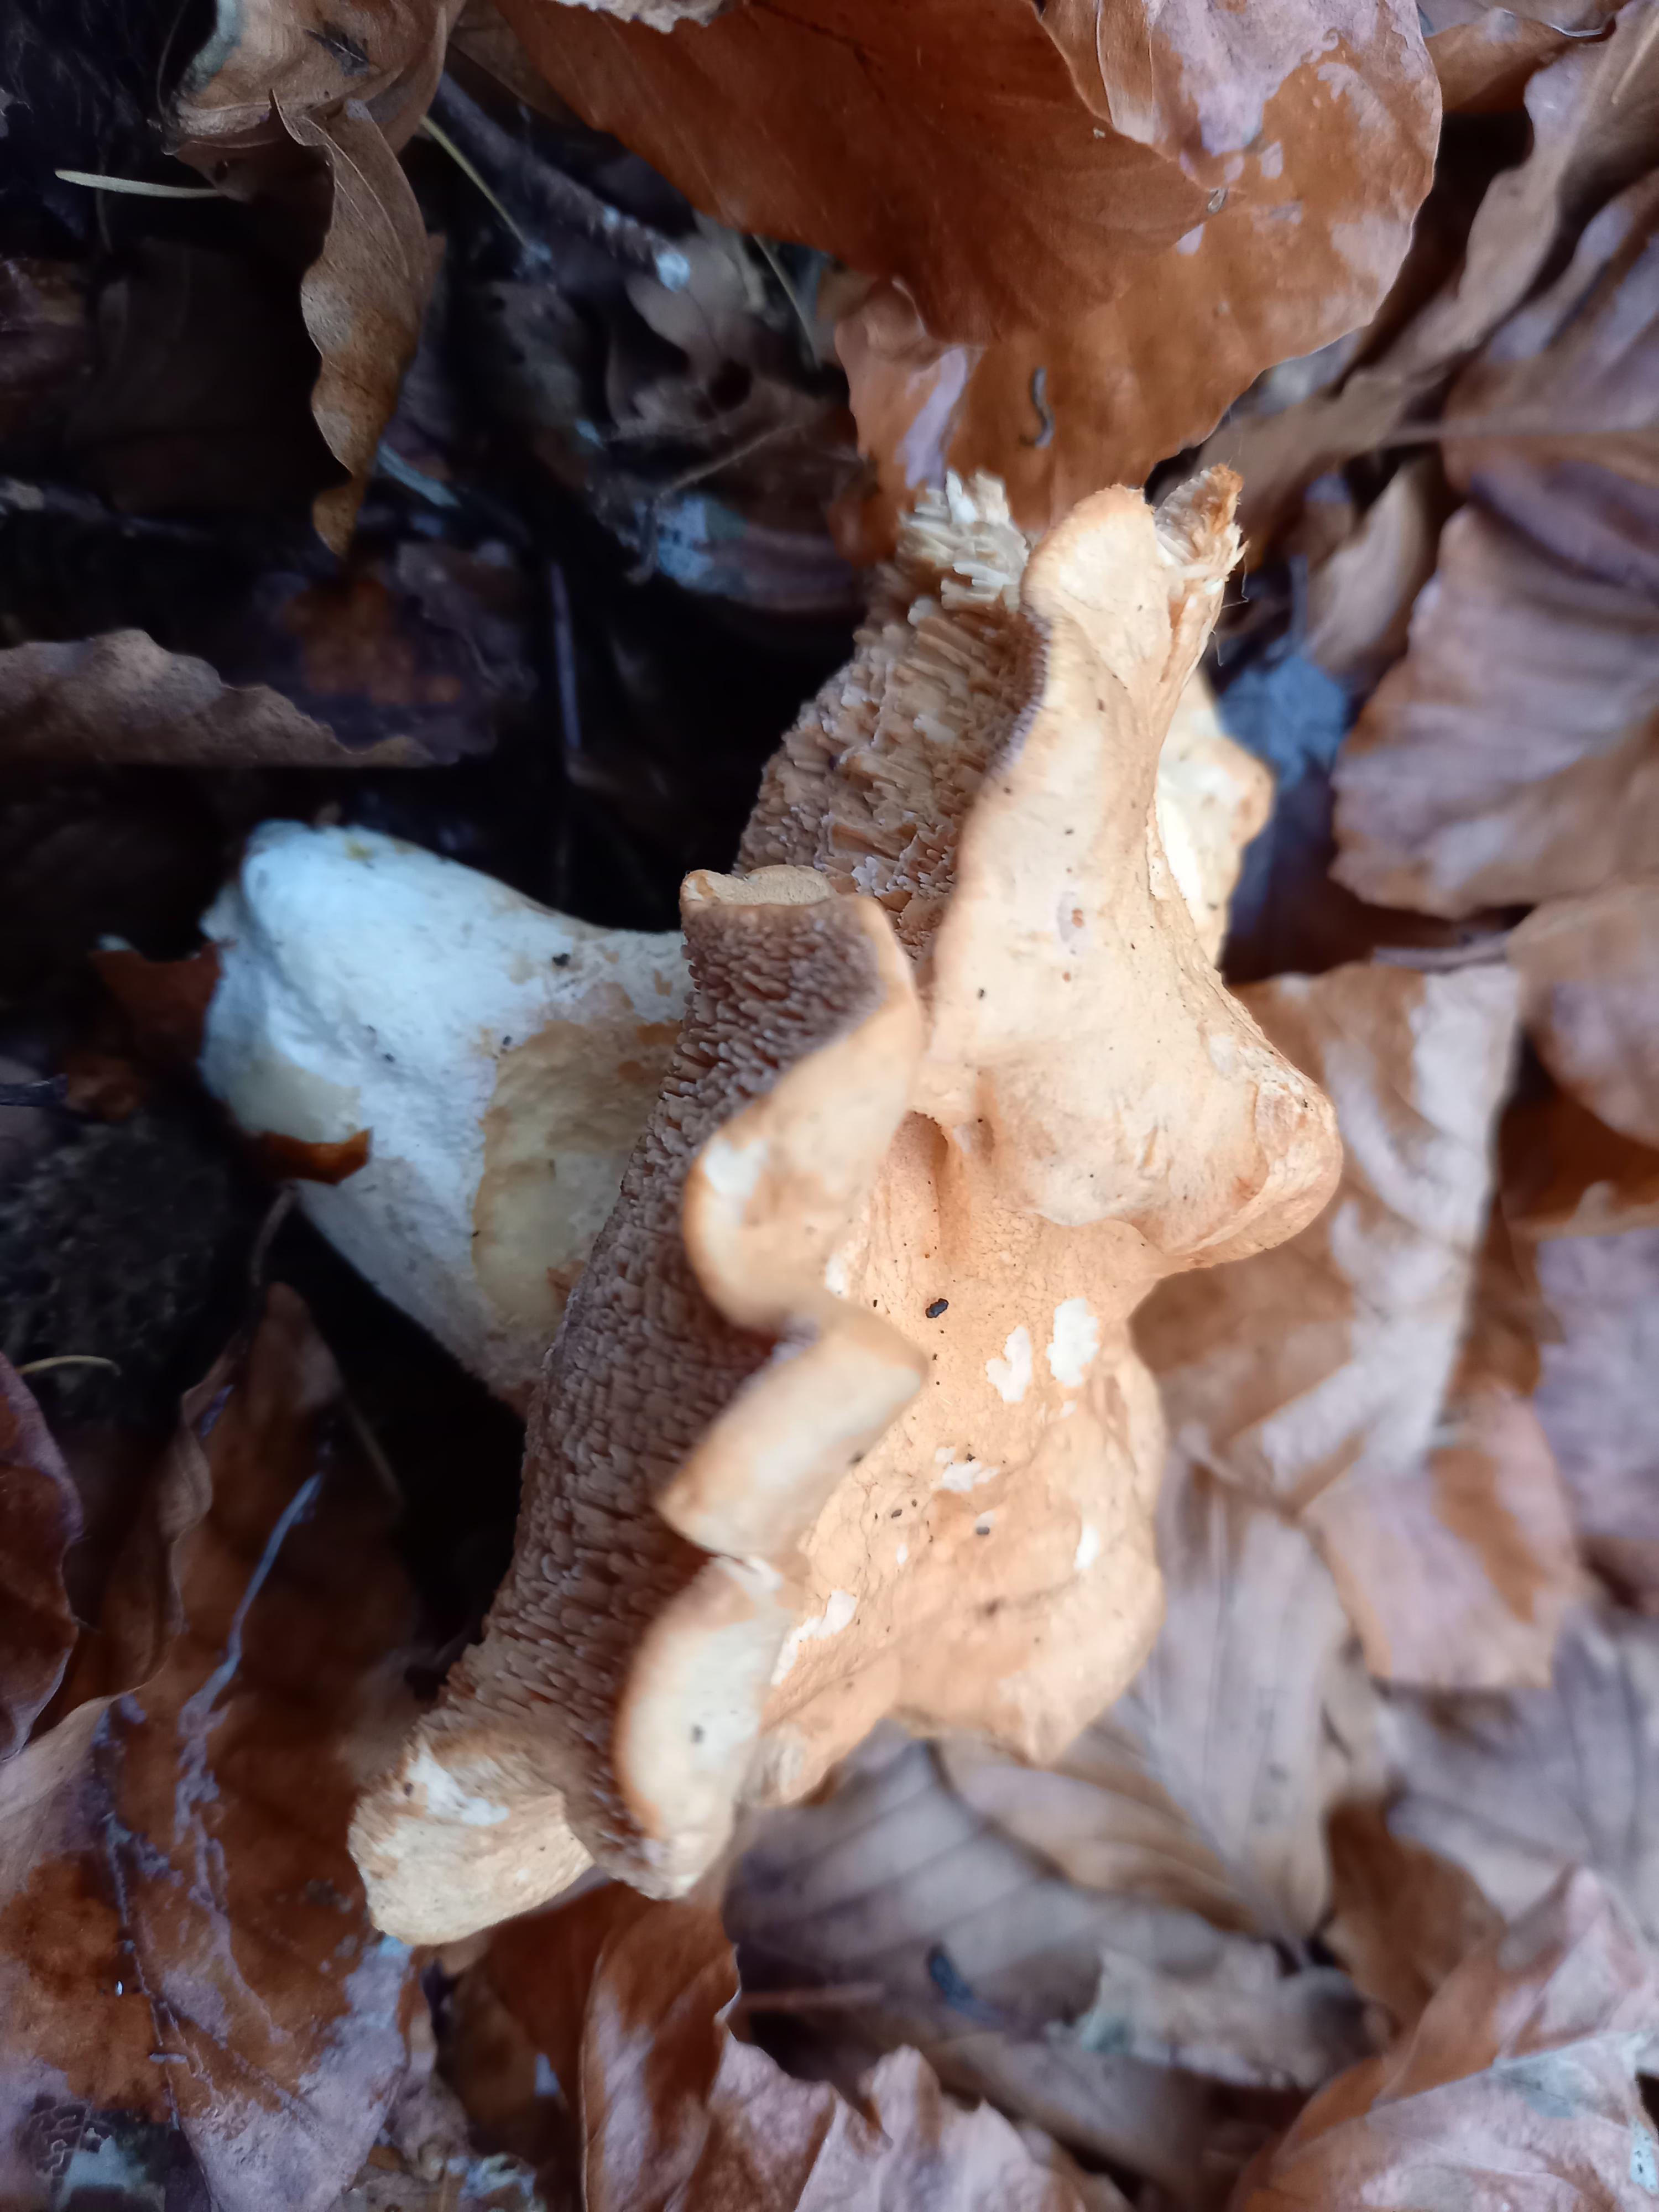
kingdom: Fungi
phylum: Basidiomycota
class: Agaricomycetes
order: Cantharellales
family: Hydnaceae
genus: Hydnum
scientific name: Hydnum
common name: pigsvamp
